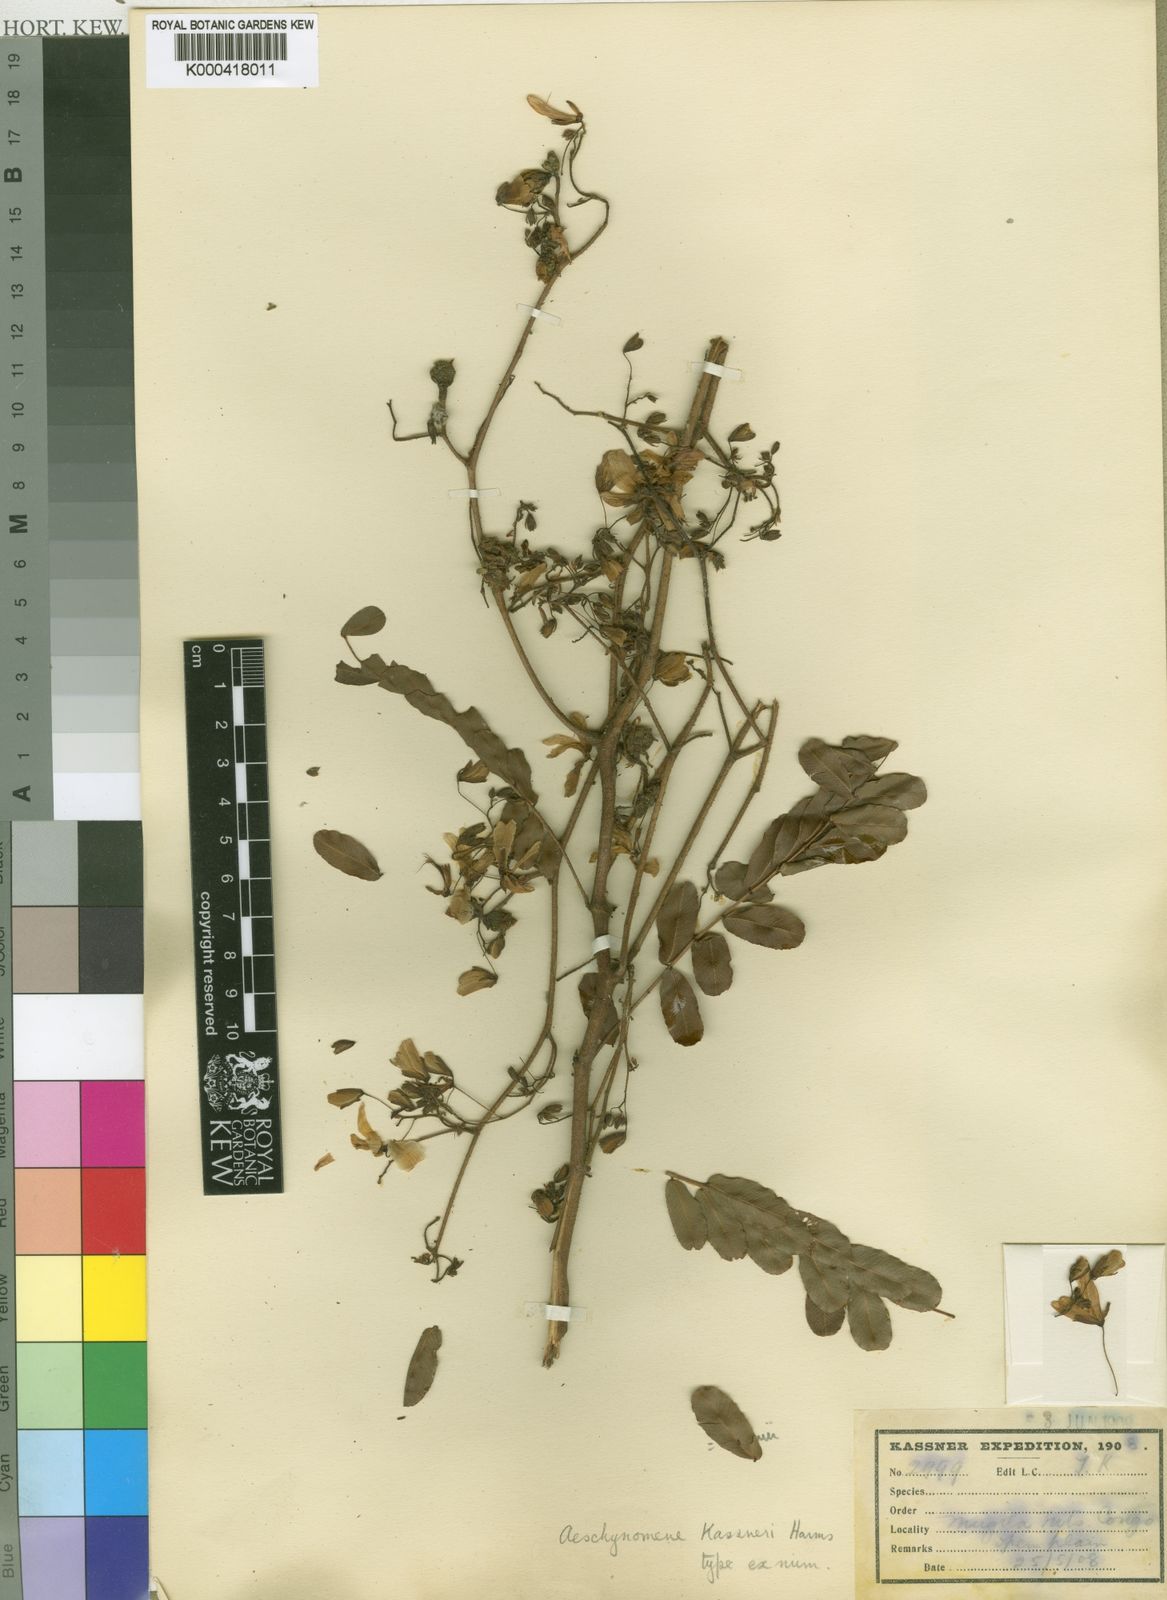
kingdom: Plantae
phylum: Tracheophyta
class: Magnoliopsida
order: Fabales
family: Fabaceae
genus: Aeschynomene
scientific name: Aeschynomene baumii
